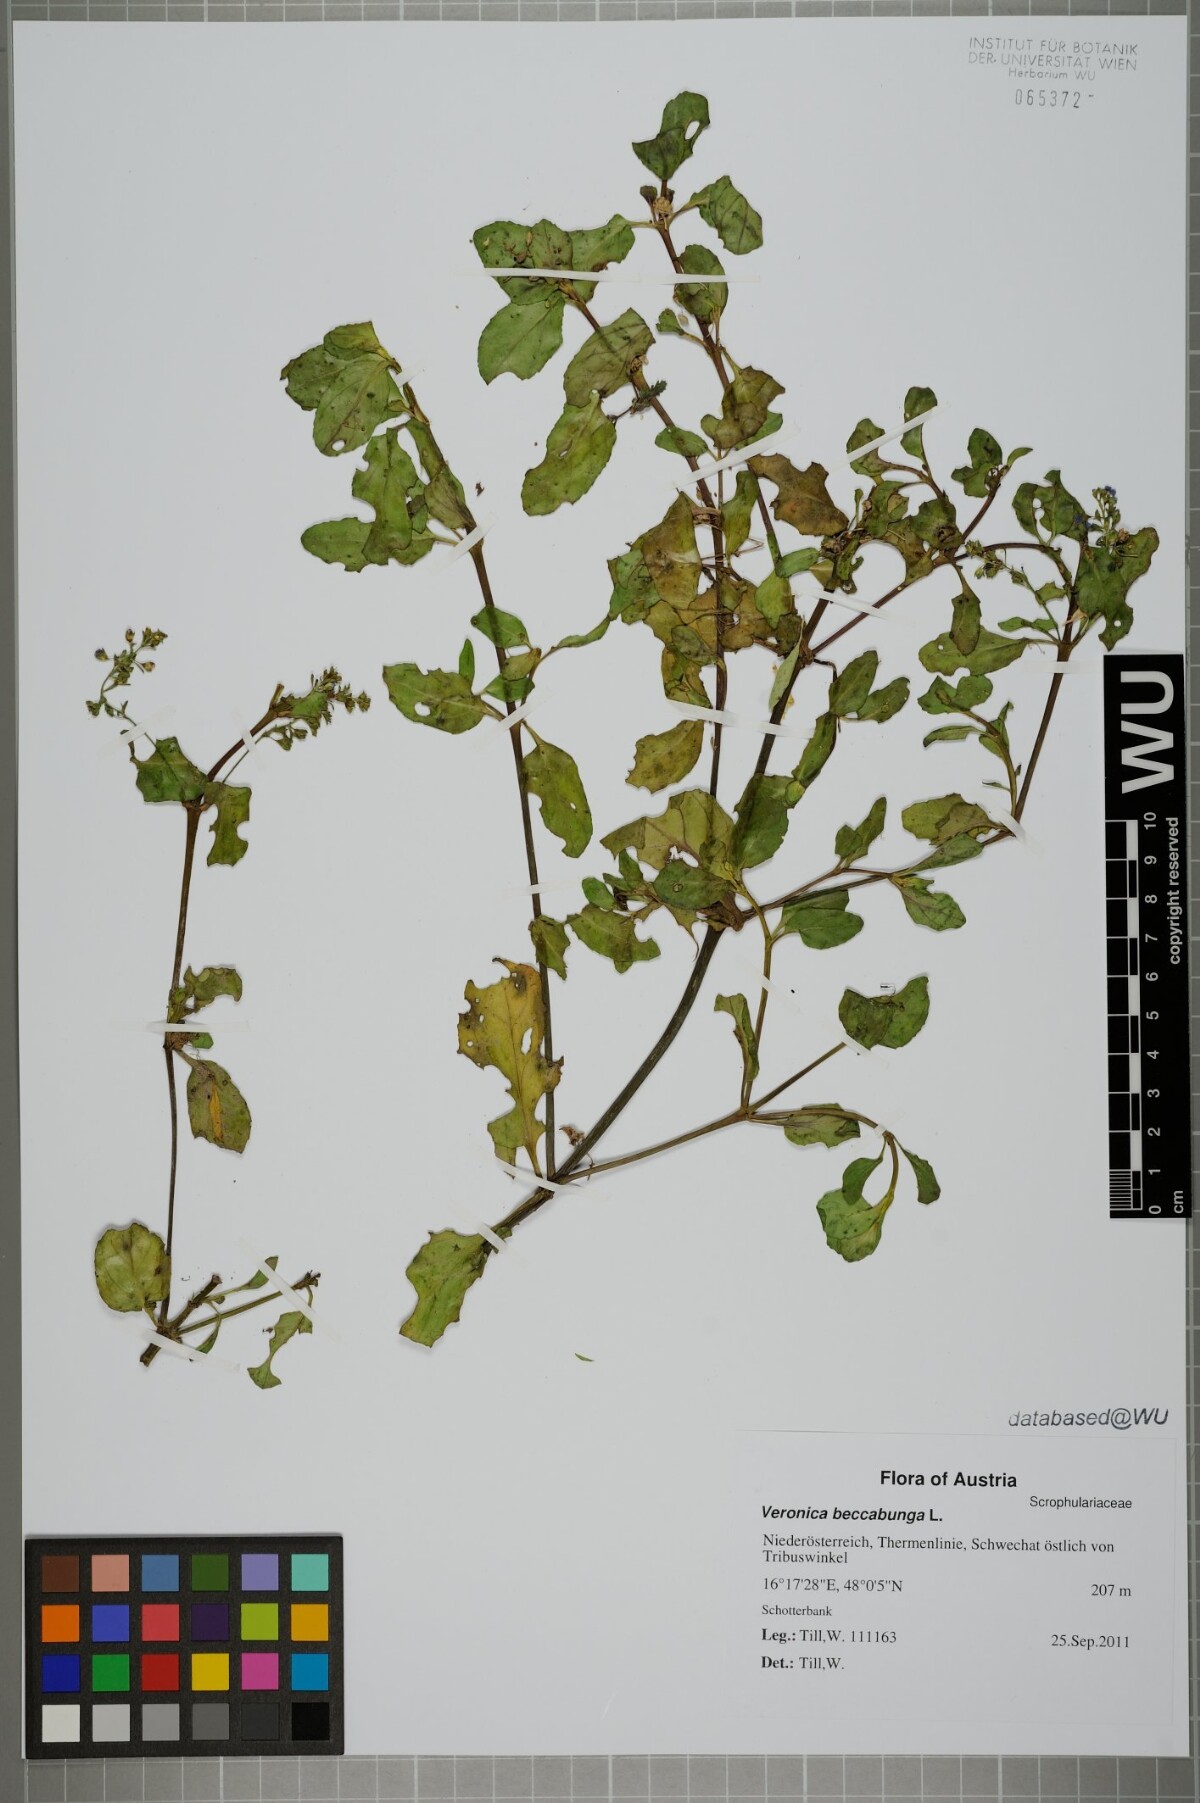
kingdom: Plantae
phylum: Tracheophyta
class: Magnoliopsida
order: Lamiales
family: Plantaginaceae
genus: Veronica
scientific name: Veronica beccabunga
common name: Brooklime
